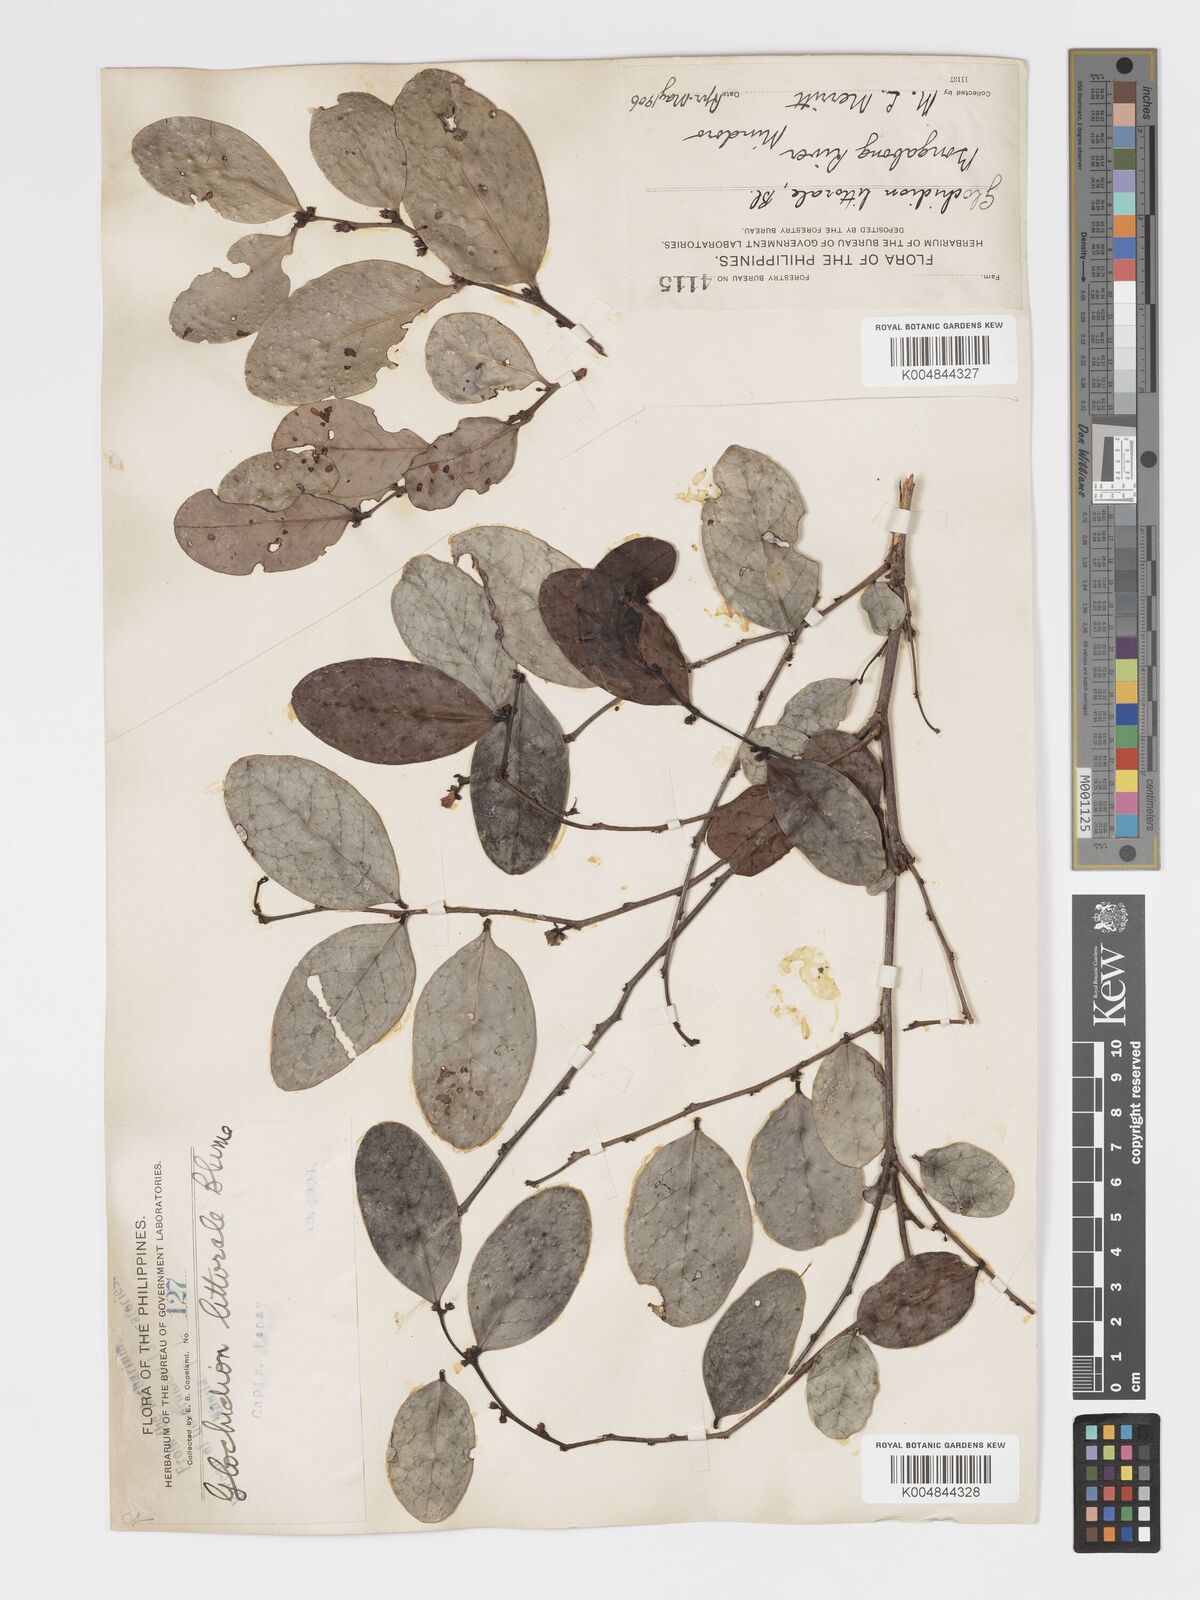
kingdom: Plantae
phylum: Tracheophyta
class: Magnoliopsida
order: Malpighiales
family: Phyllanthaceae
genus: Glochidion
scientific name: Glochidion
